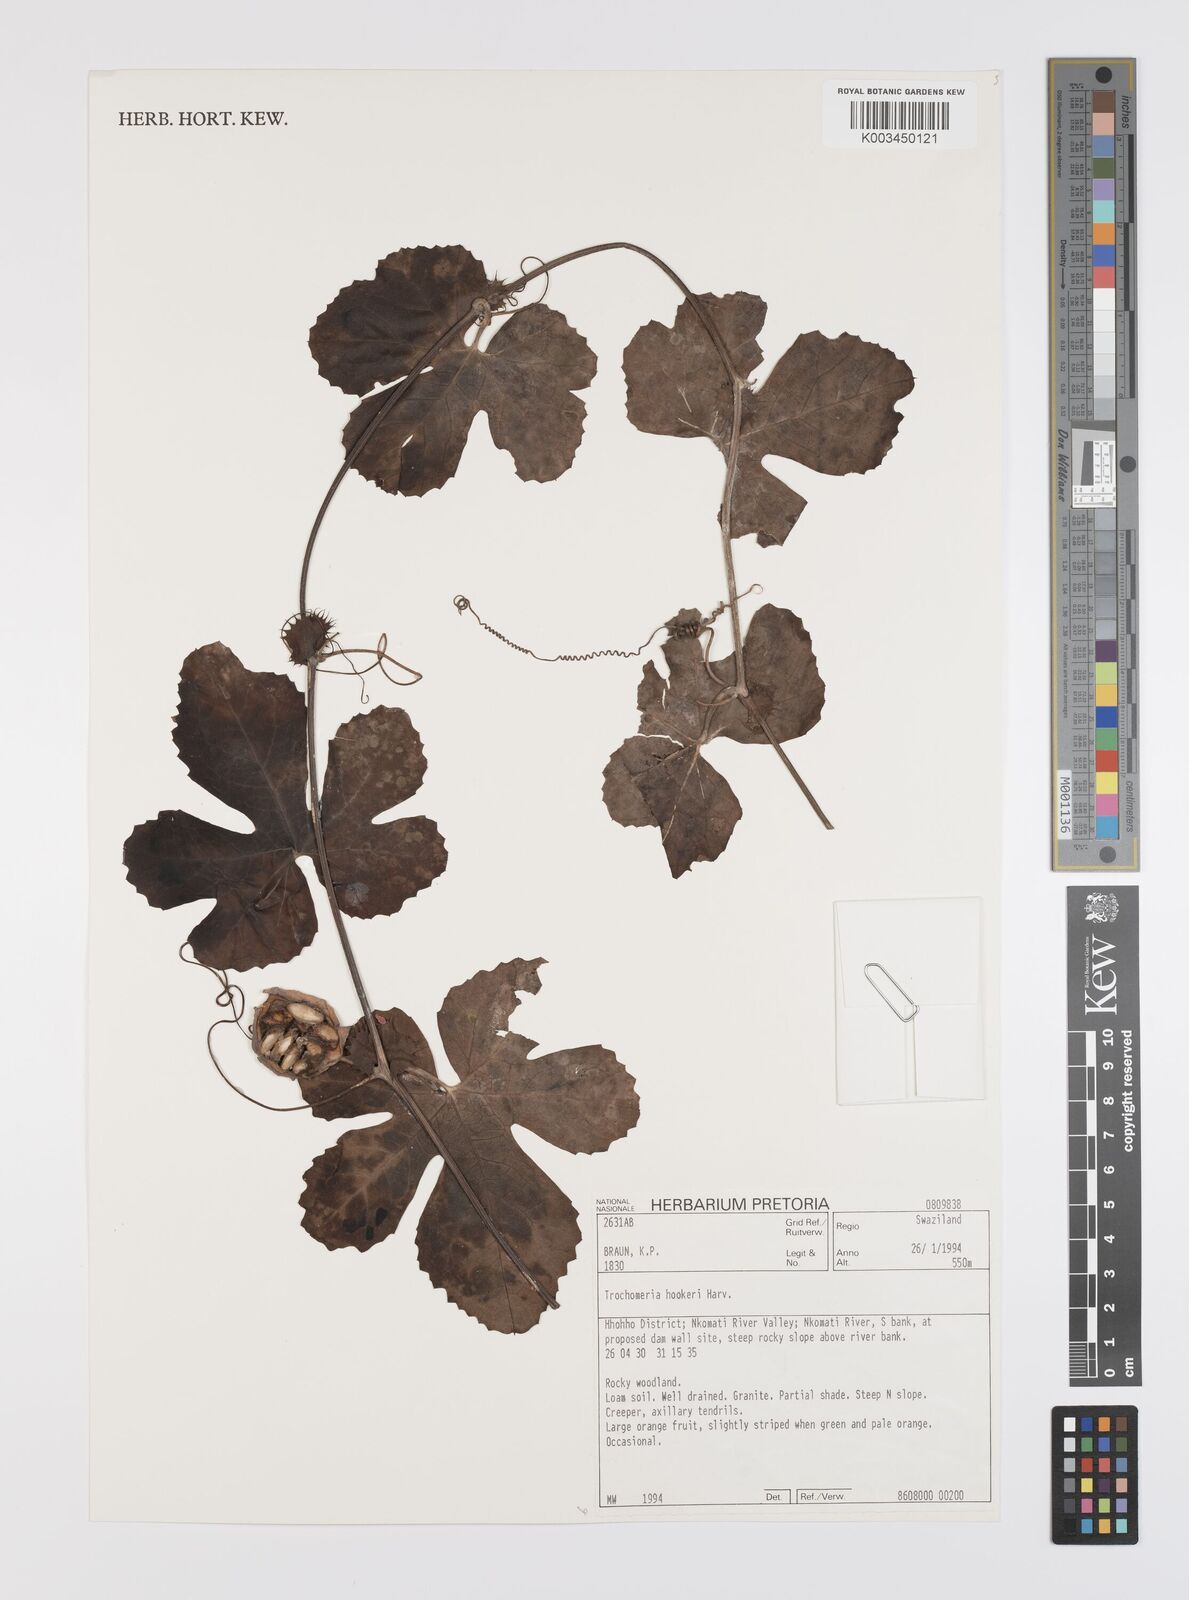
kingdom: Plantae
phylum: Tracheophyta
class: Magnoliopsida
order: Cucurbitales
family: Cucurbitaceae
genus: Trochomeria
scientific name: Trochomeria hookeri
